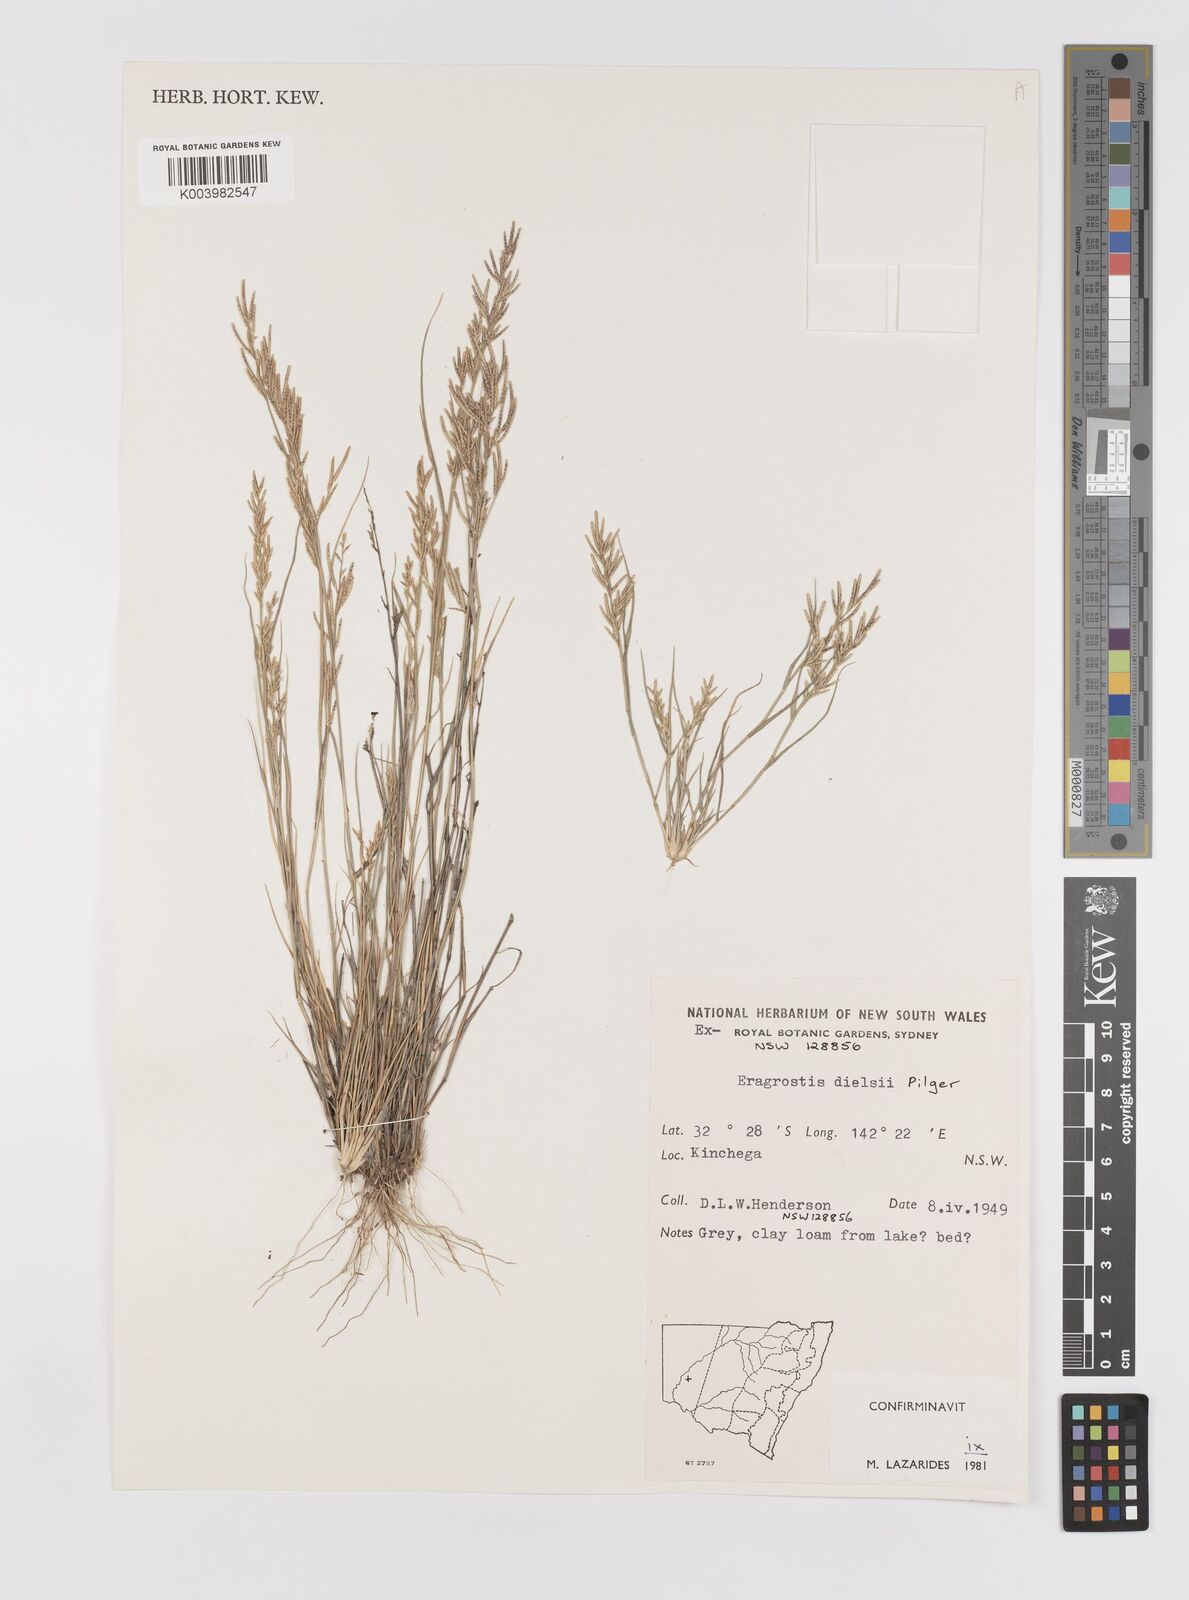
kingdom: Plantae
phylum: Tracheophyta
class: Liliopsida
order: Poales
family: Poaceae
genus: Eragrostis
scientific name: Eragrostis dielsii
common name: Lovegrass
